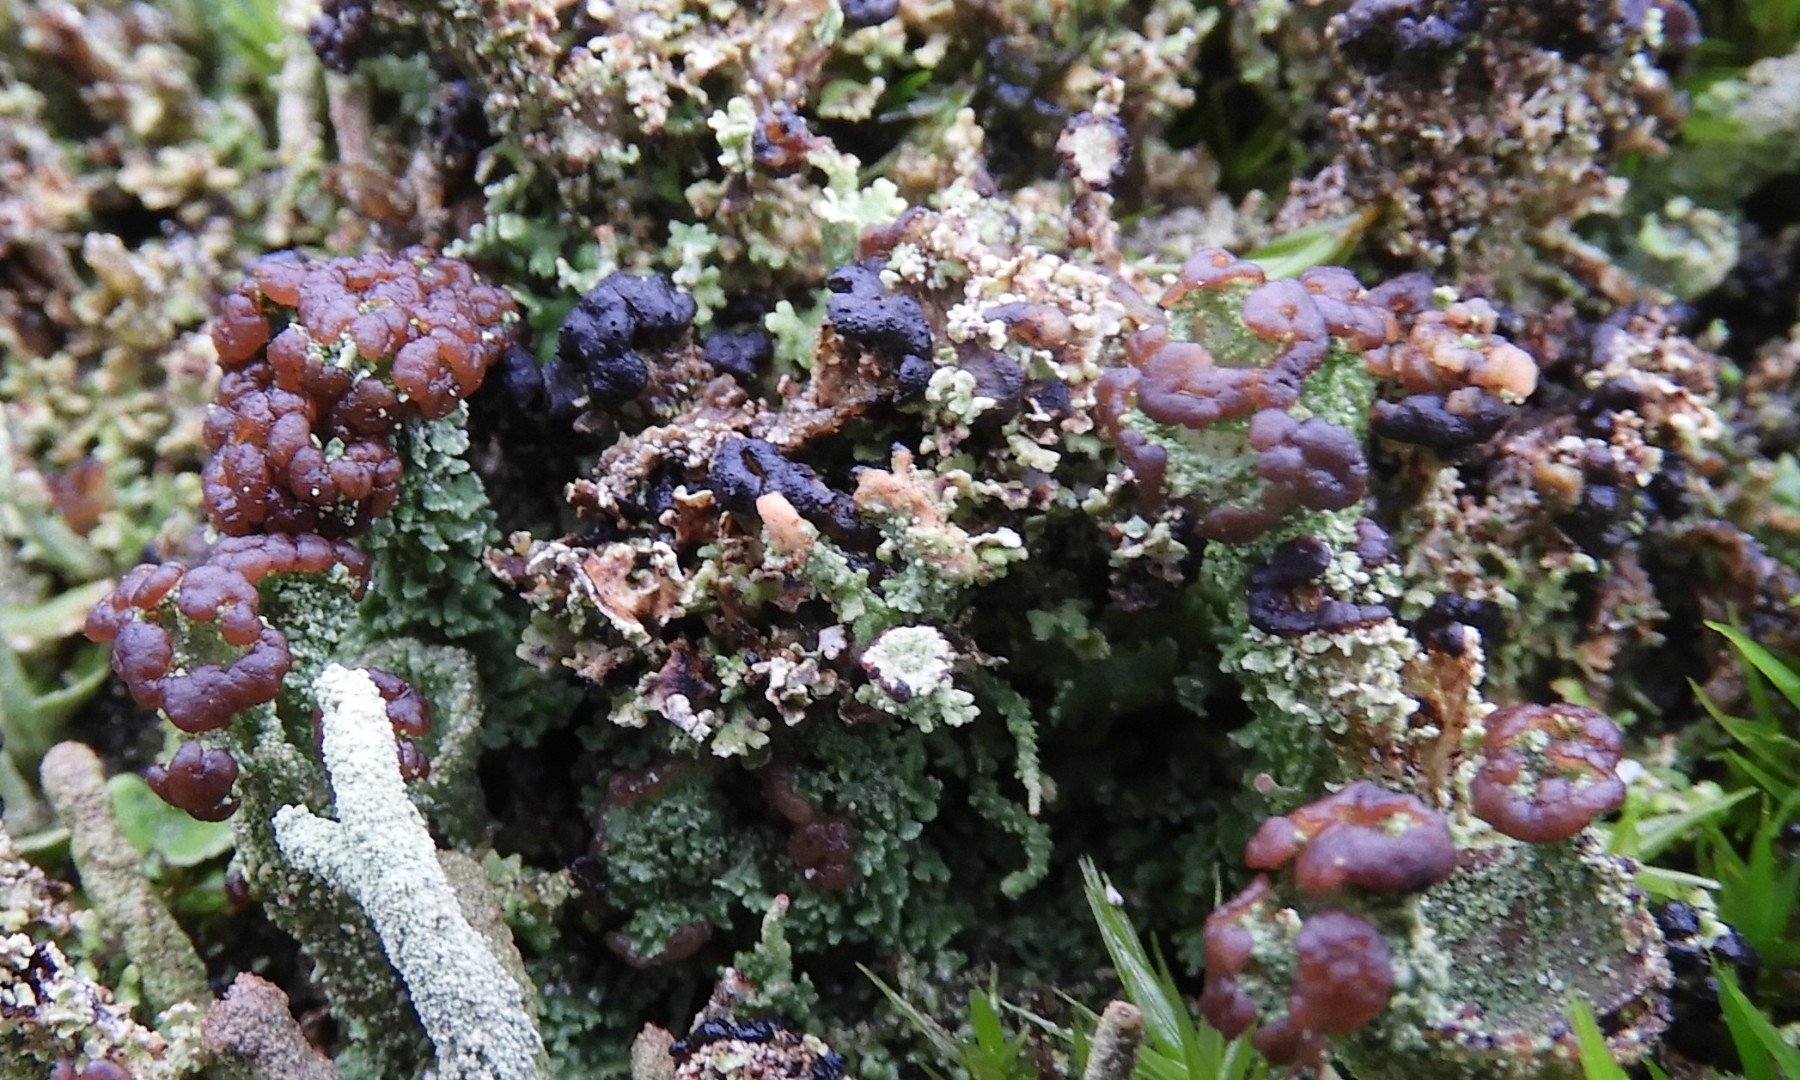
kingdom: Fungi
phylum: Ascomycota
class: Lecanoromycetes
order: Lecanorales
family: Cladoniaceae
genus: Cladonia
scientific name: Cladonia ramulosa
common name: kliddet bægerlav
